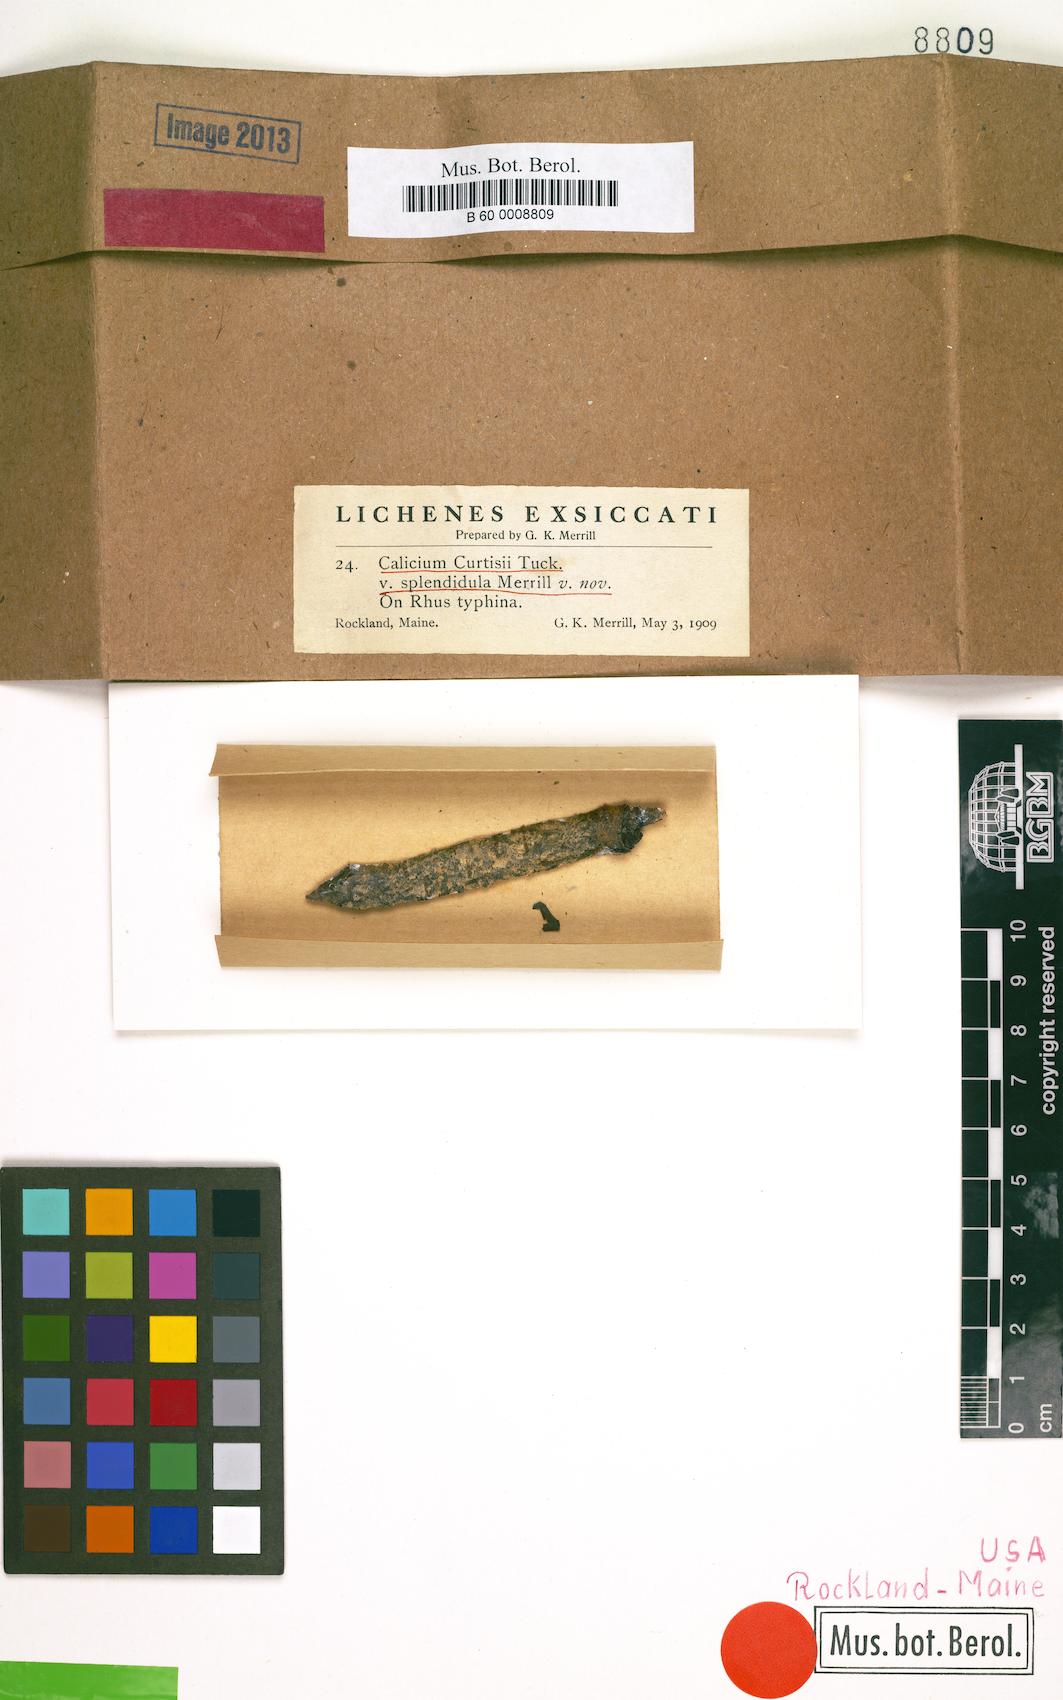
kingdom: Fungi
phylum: Ascomycota
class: Eurotiomycetes
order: Mycocaliciales
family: Mycocaliciaceae
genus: Phaeocalicium
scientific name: Phaeocalicium curtisii
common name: Sumac needles
